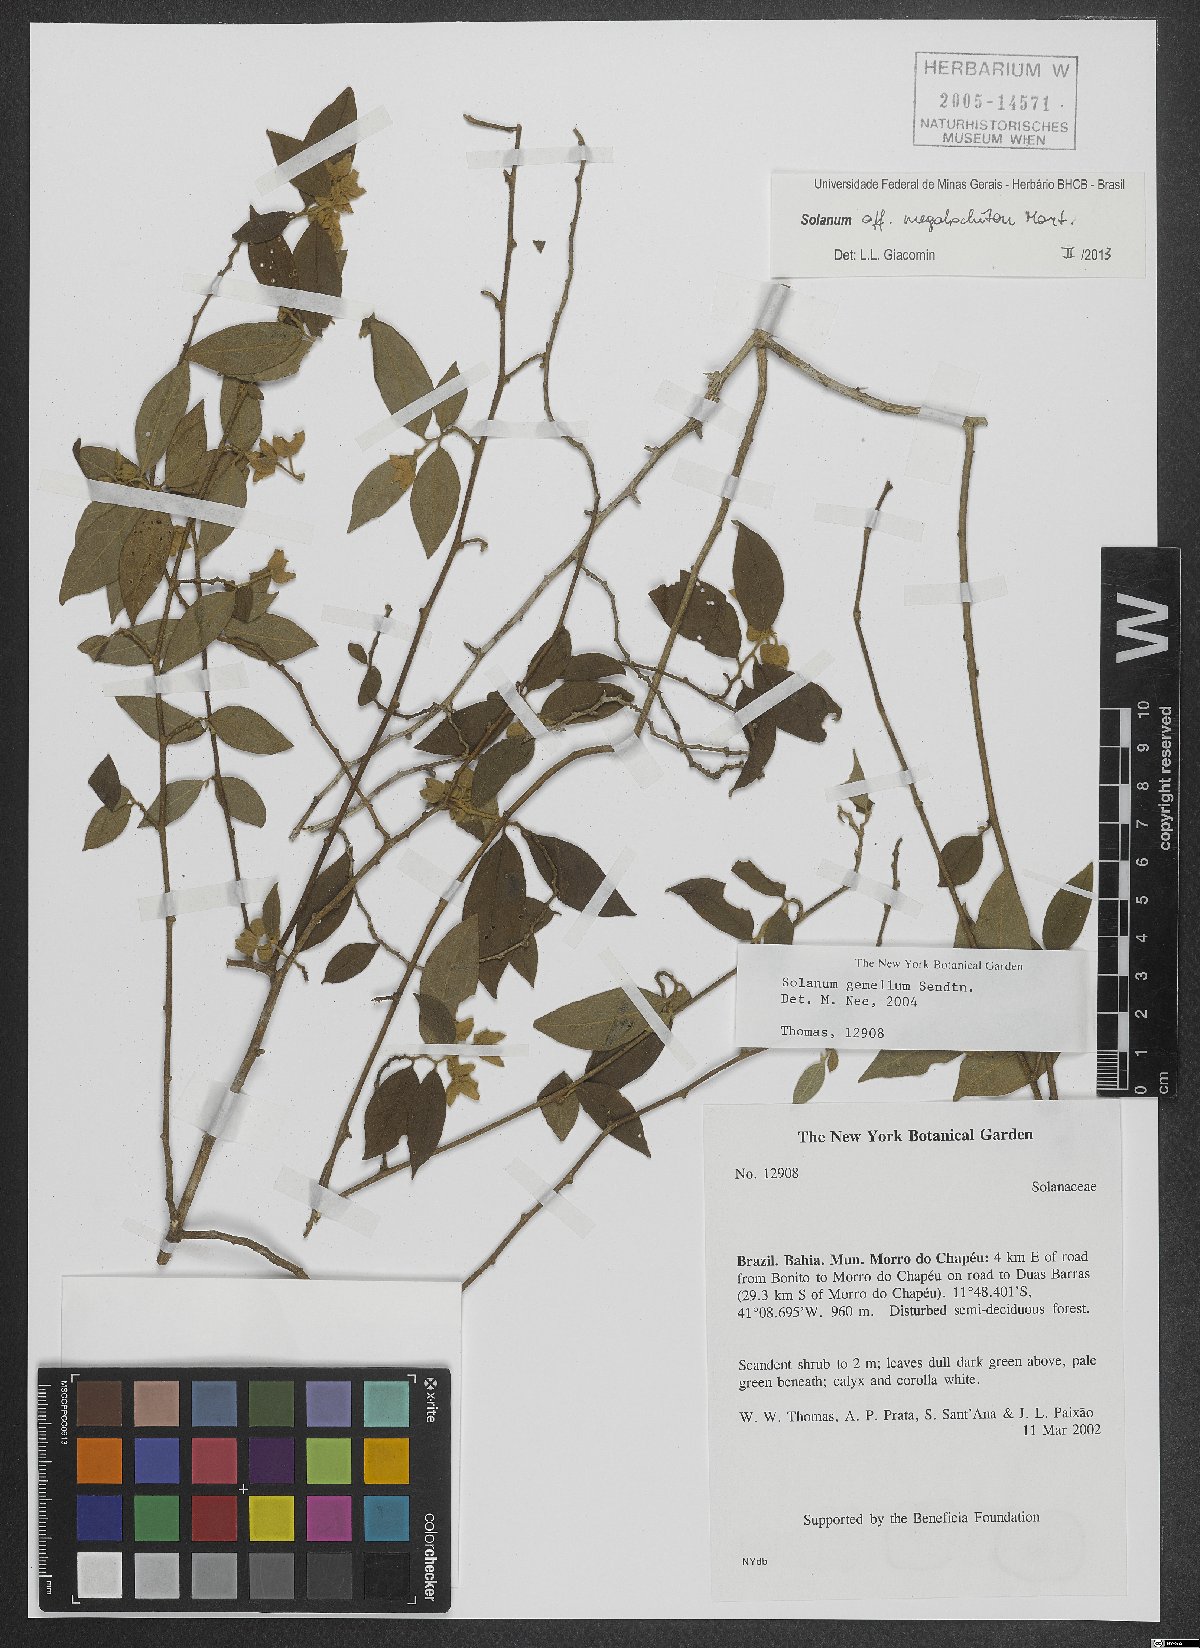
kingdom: Plantae
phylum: Tracheophyta
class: Magnoliopsida
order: Solanales
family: Solanaceae
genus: Solanum
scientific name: Solanum megalochiton
